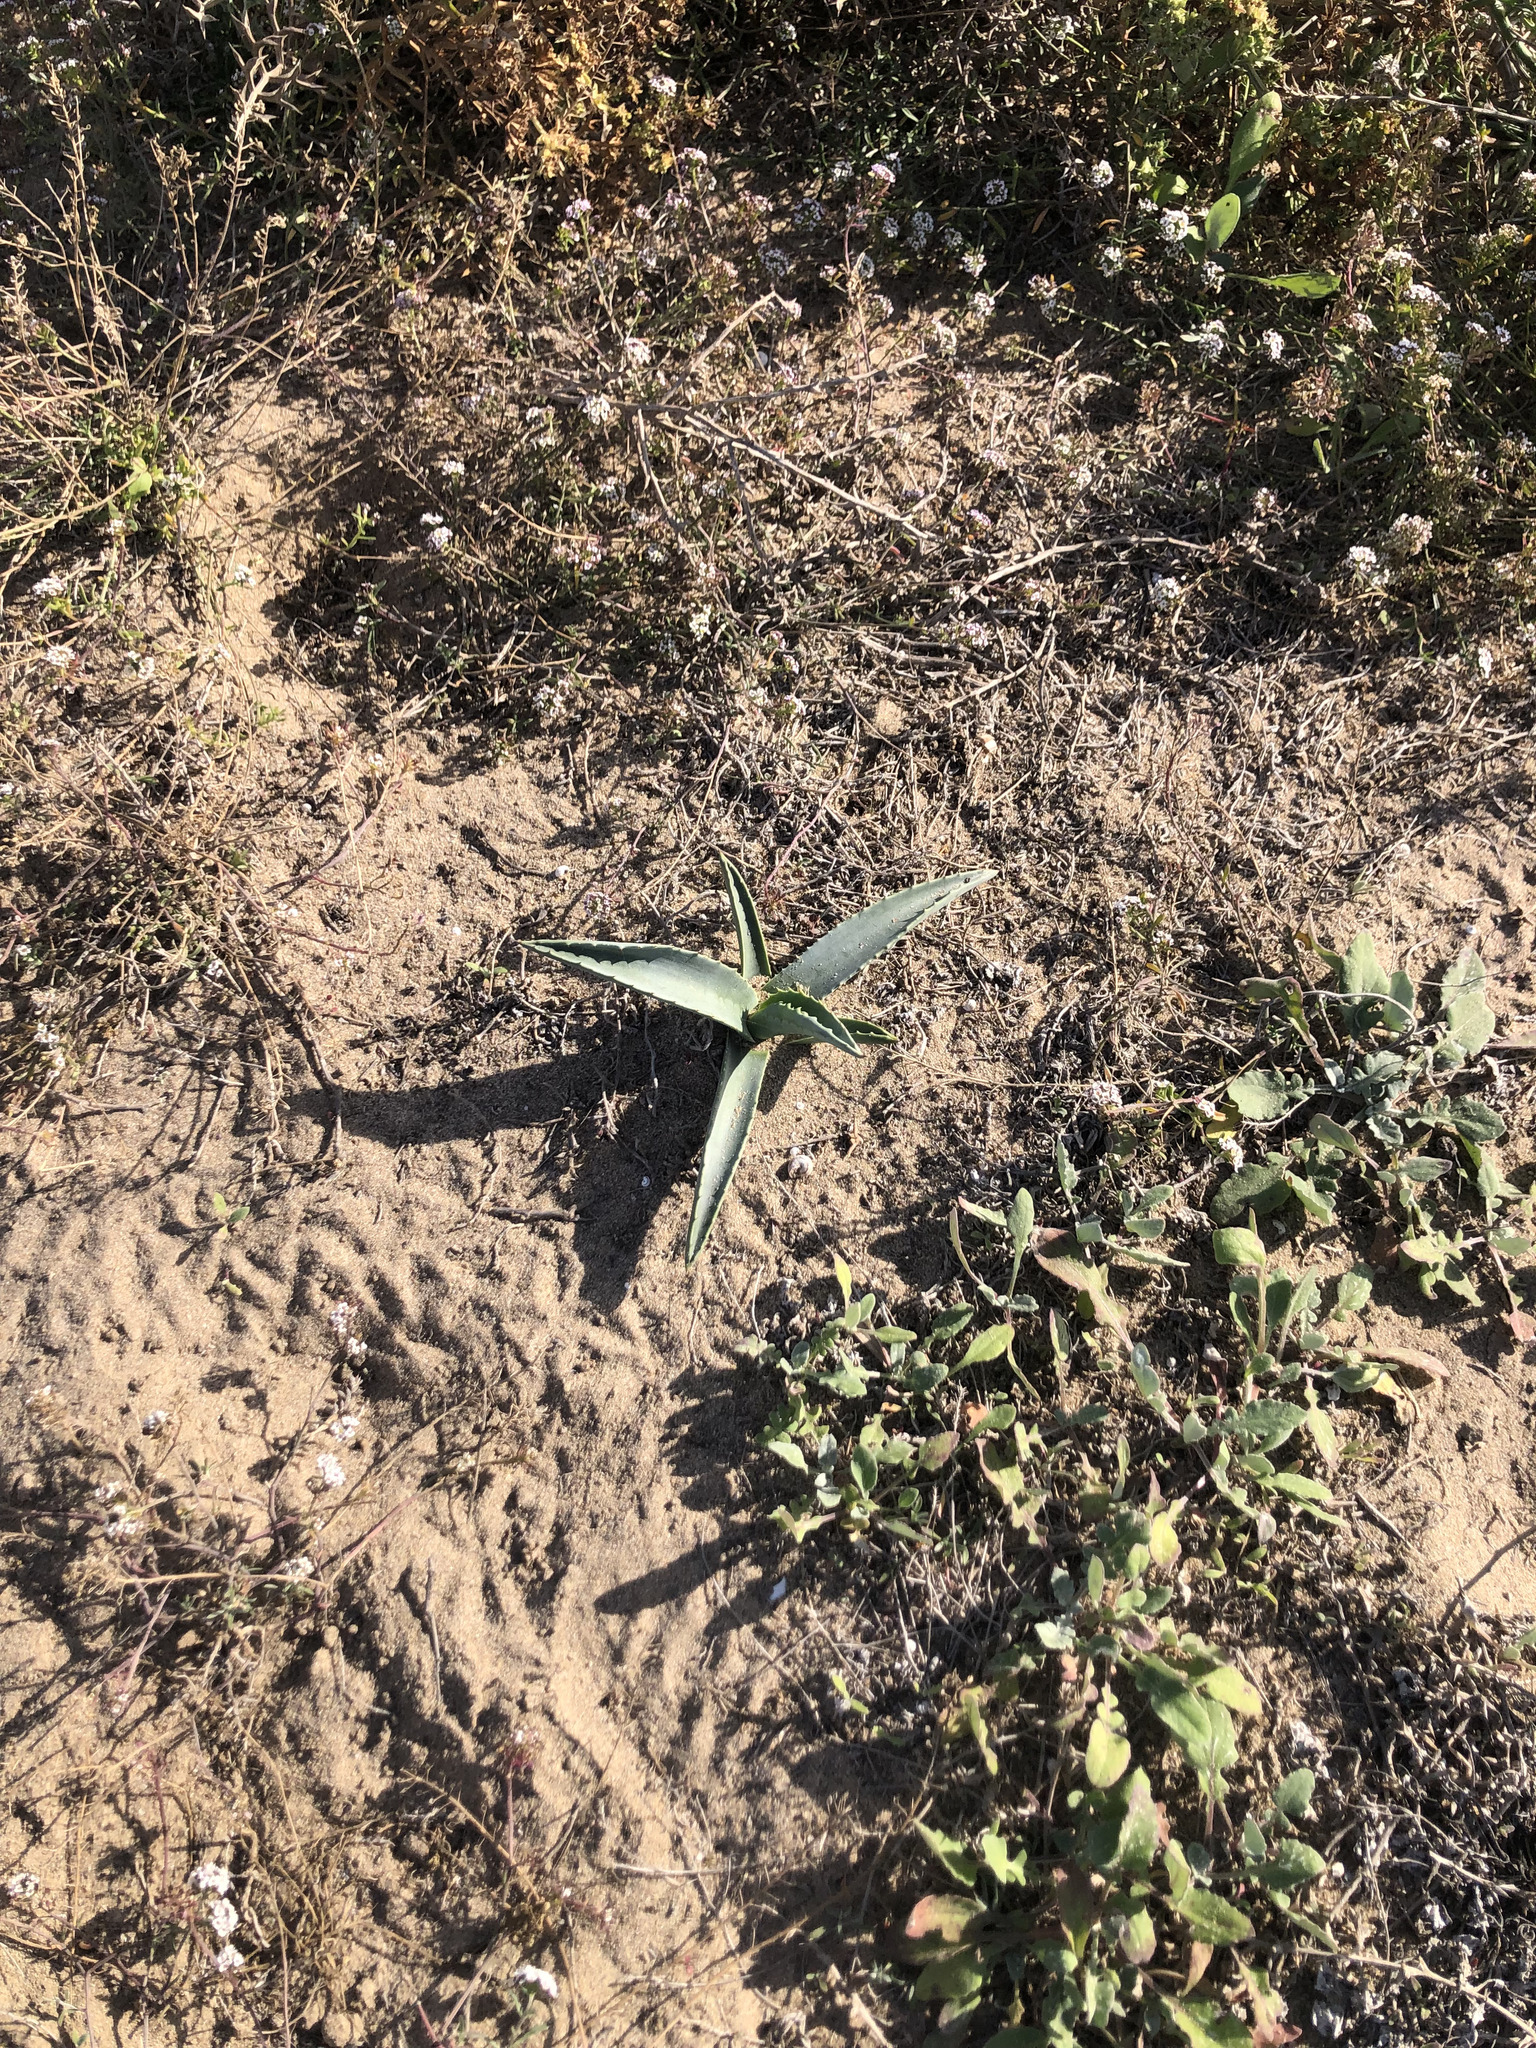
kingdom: Plantae
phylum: Tracheophyta
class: Liliopsida
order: Asparagales
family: Asparagaceae
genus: Agave
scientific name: Agave americana
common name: Centuryplant
